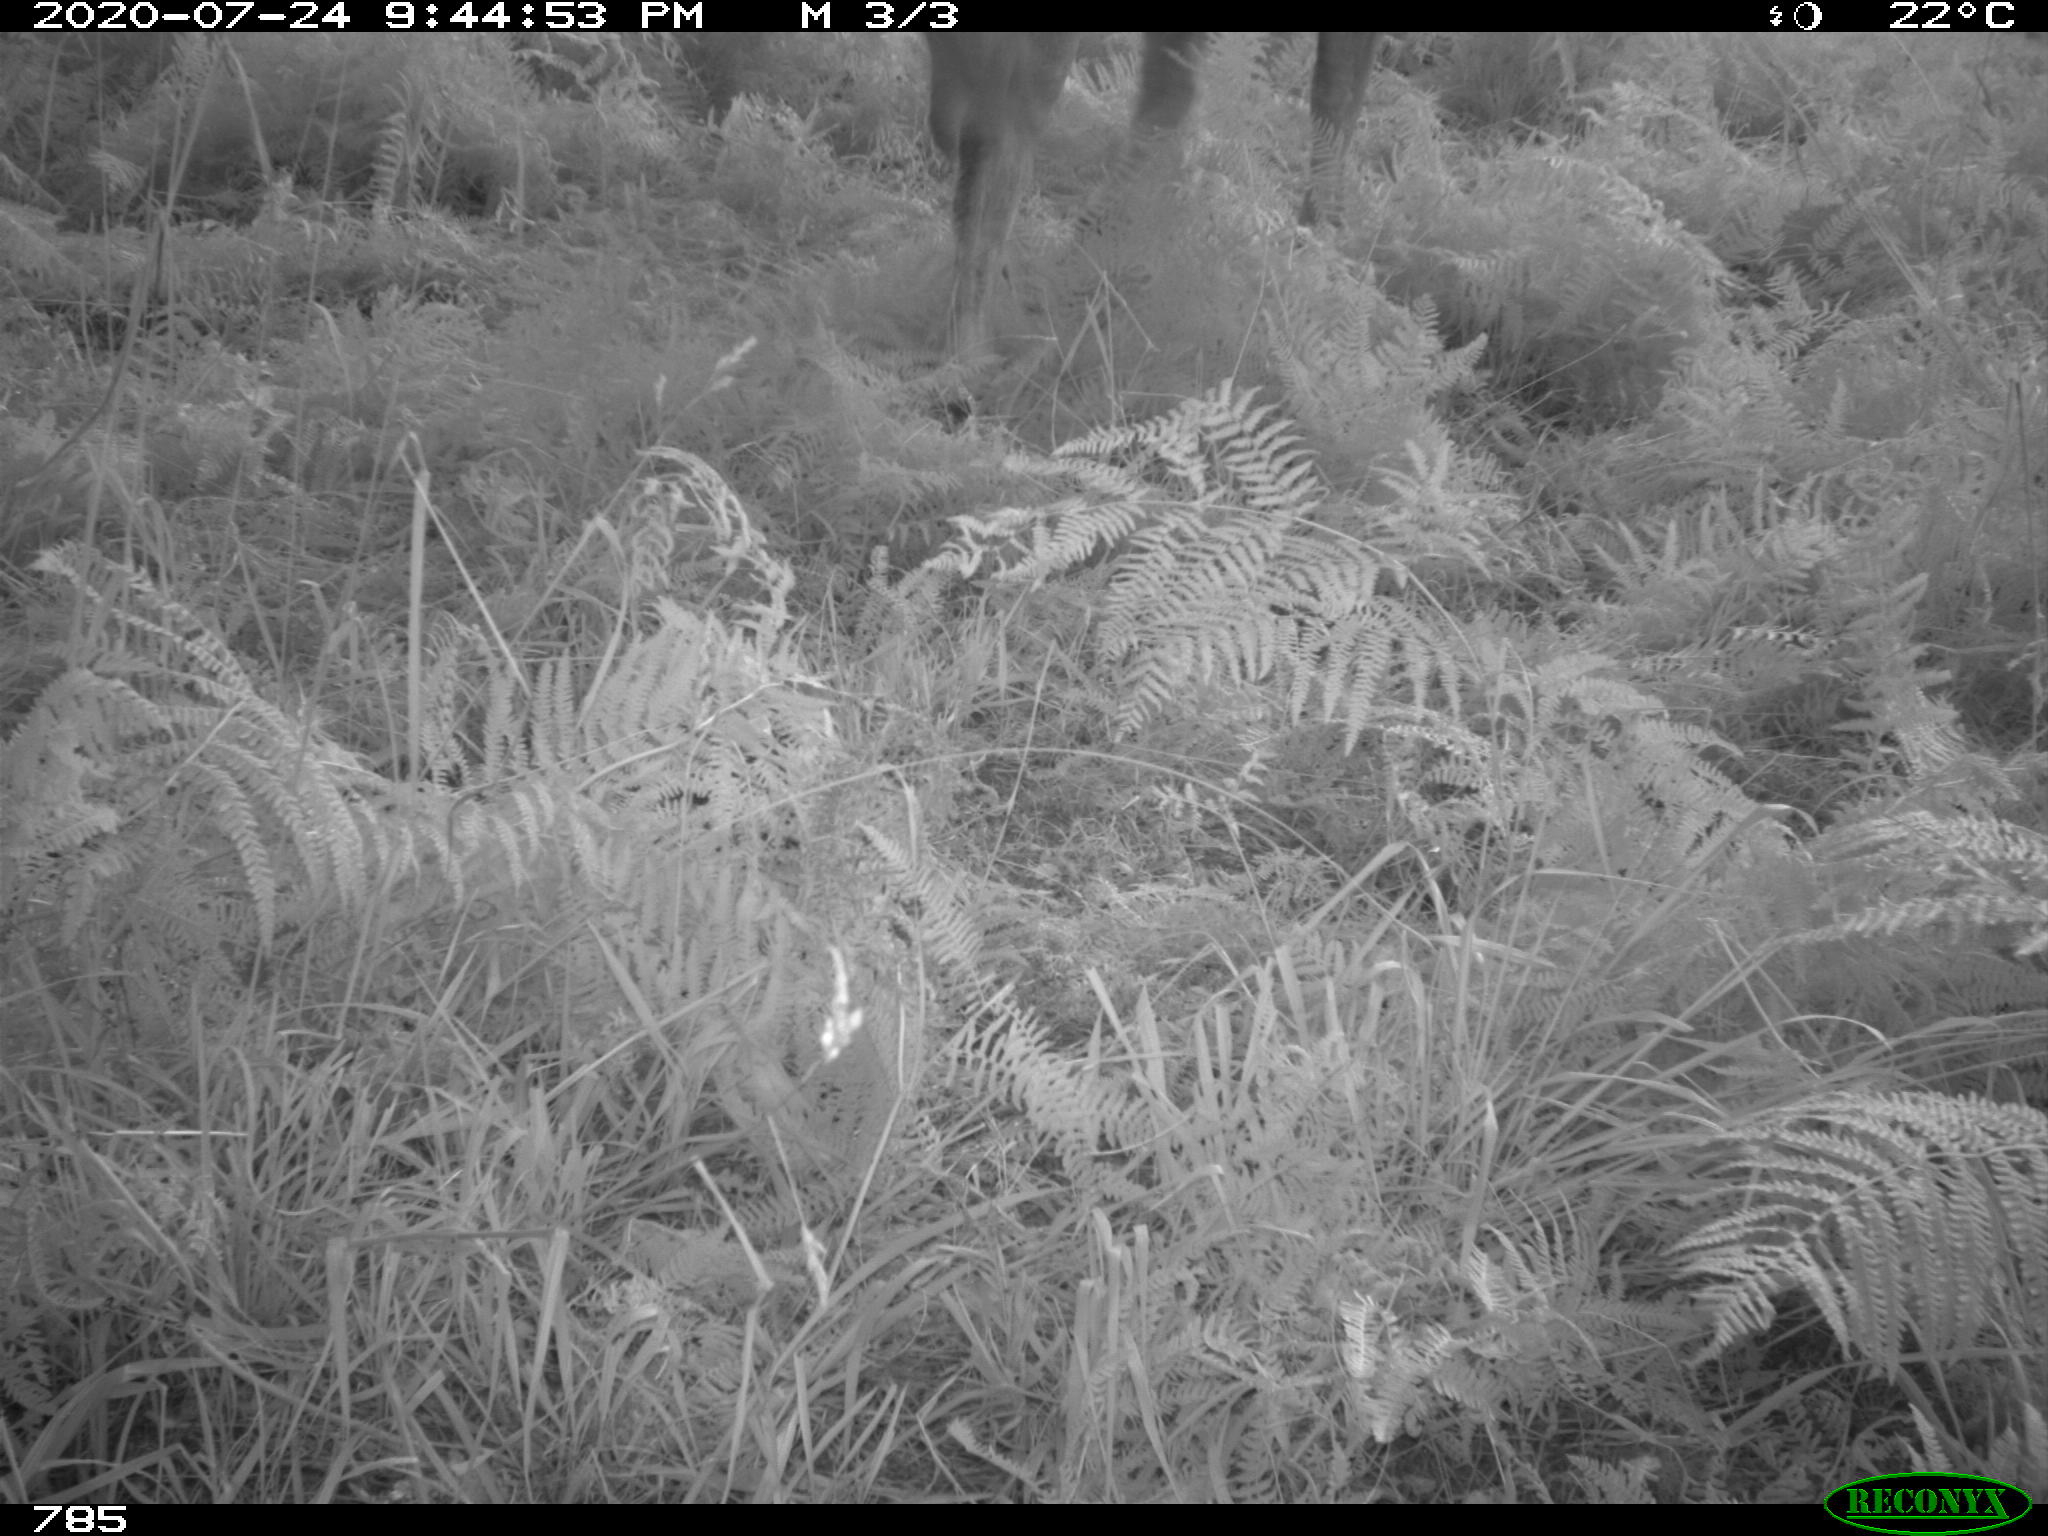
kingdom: Animalia
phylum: Chordata
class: Mammalia
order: Artiodactyla
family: Bovidae
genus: Bos
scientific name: Bos taurus
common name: Domesticated cattle
